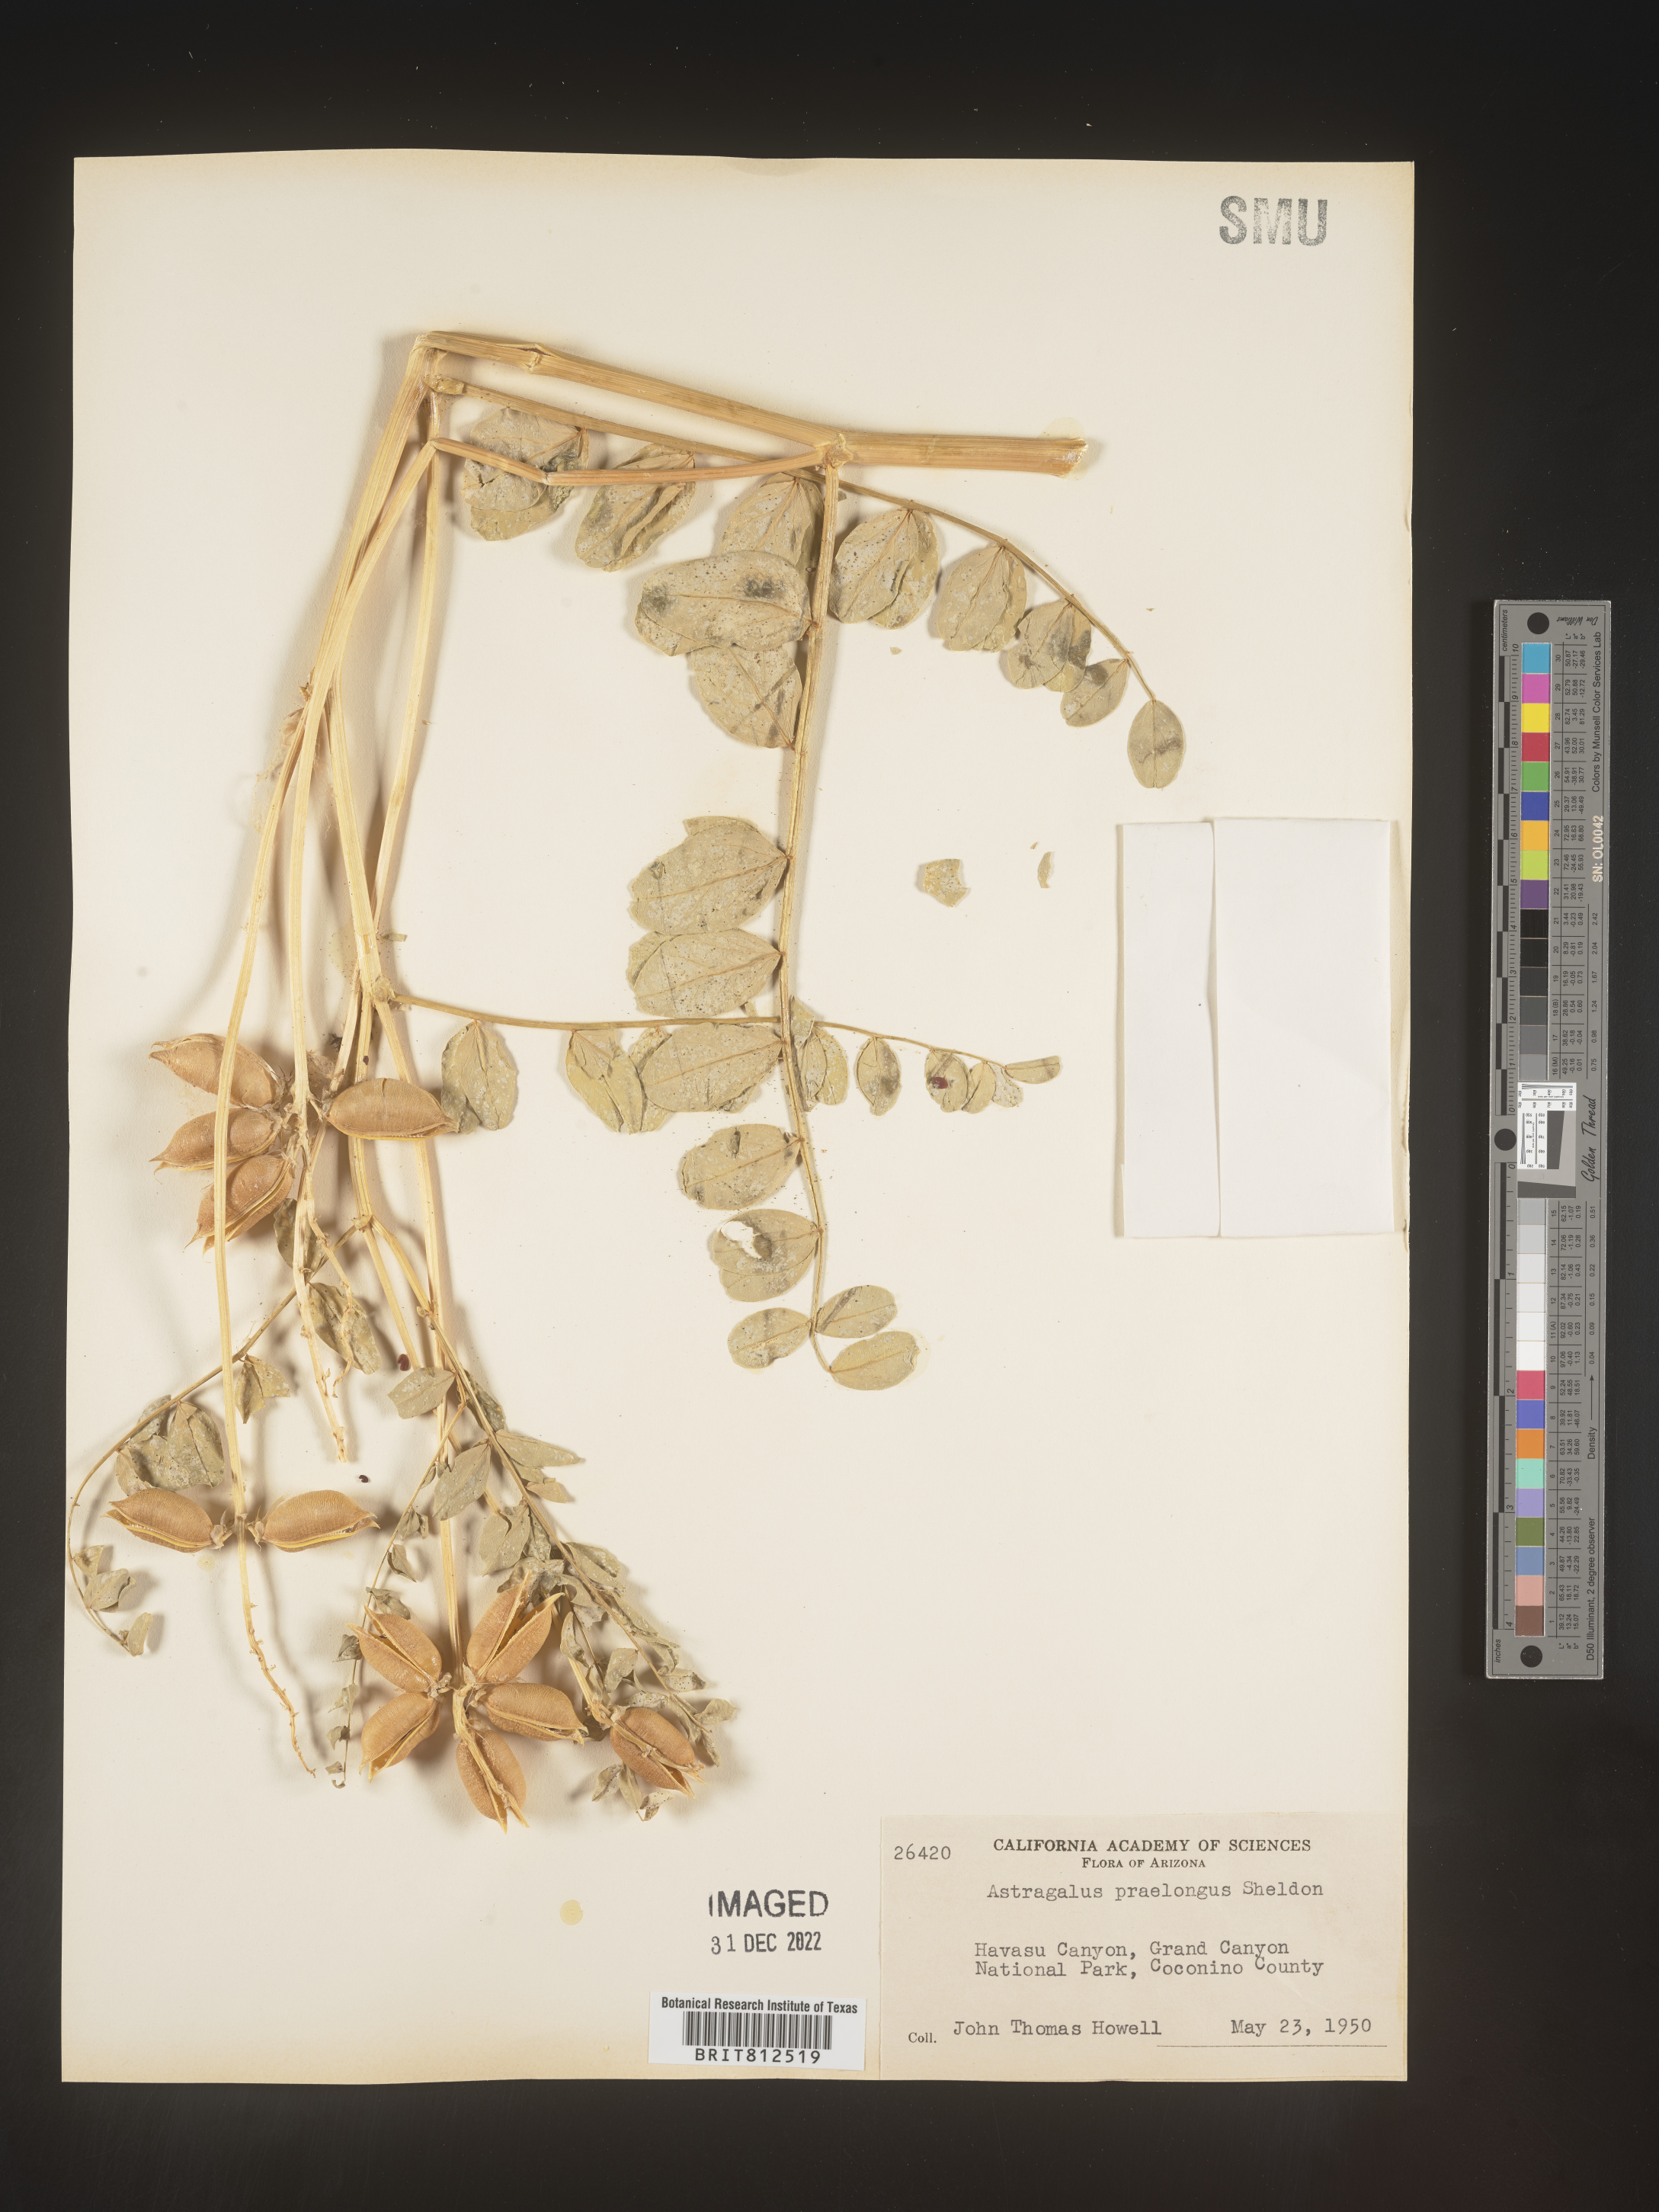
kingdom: Plantae
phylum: Tracheophyta
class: Magnoliopsida
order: Fabales
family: Fabaceae
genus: Astragalus
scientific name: Astragalus
